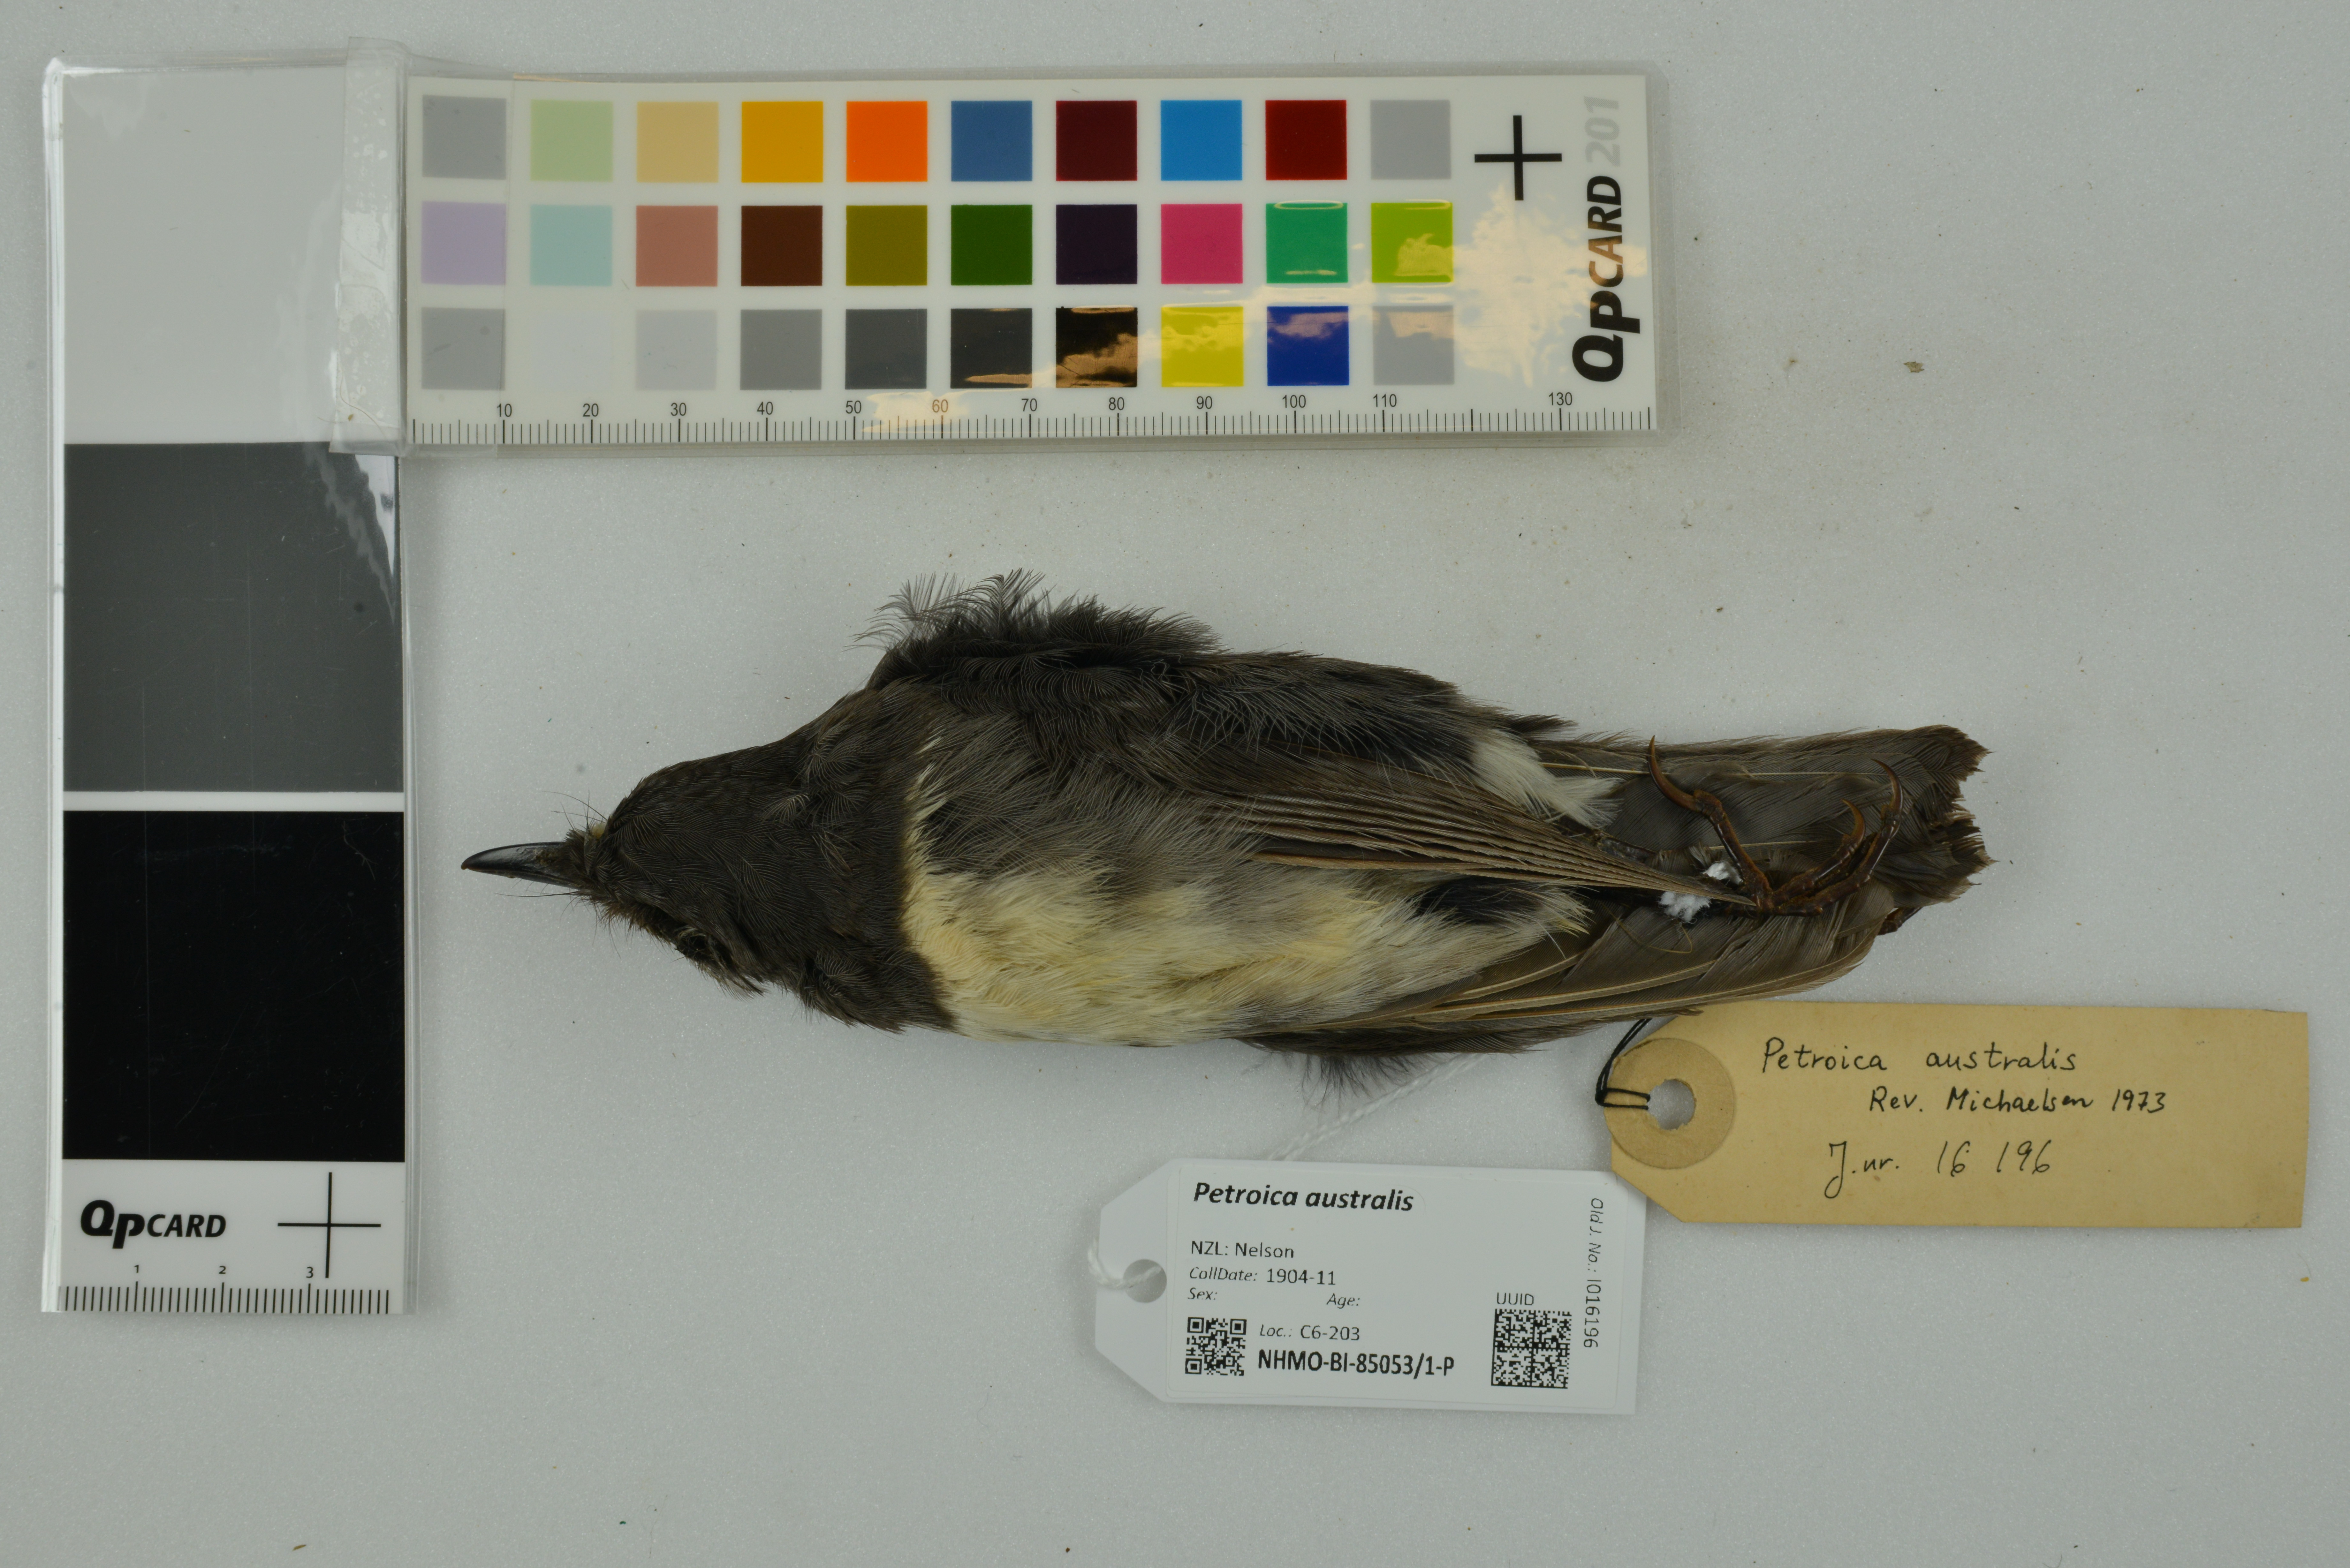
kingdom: Animalia
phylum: Chordata
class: Aves
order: Passeriformes
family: Petroicidae
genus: Petroica
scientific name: Petroica australis
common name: New zealand robin
